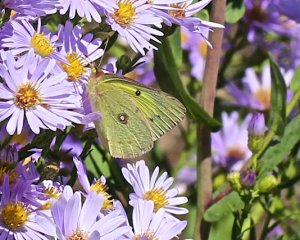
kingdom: Animalia
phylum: Arthropoda
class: Insecta
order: Lepidoptera
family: Pieridae
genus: Colias
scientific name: Colias philodice
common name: Clouded Sulphur
